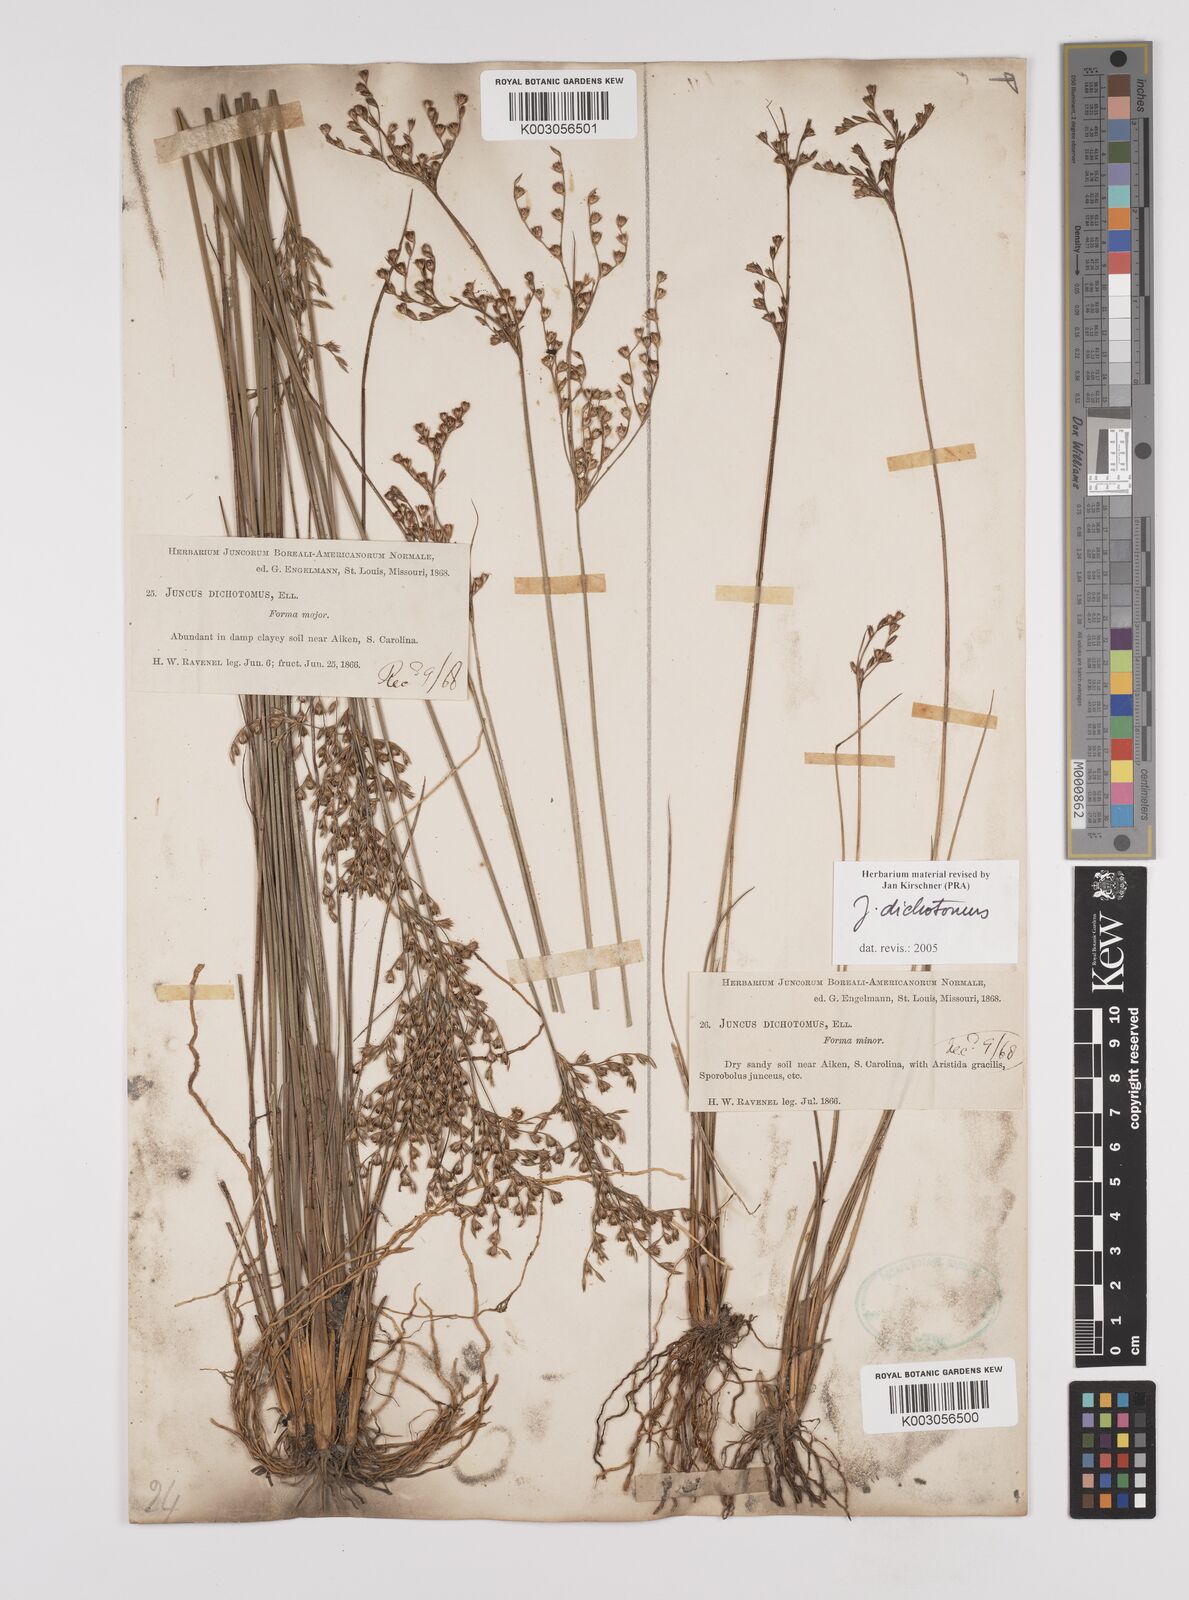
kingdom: Plantae
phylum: Tracheophyta
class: Liliopsida
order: Poales
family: Juncaceae
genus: Juncus
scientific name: Juncus dichotomus
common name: Forked rush
